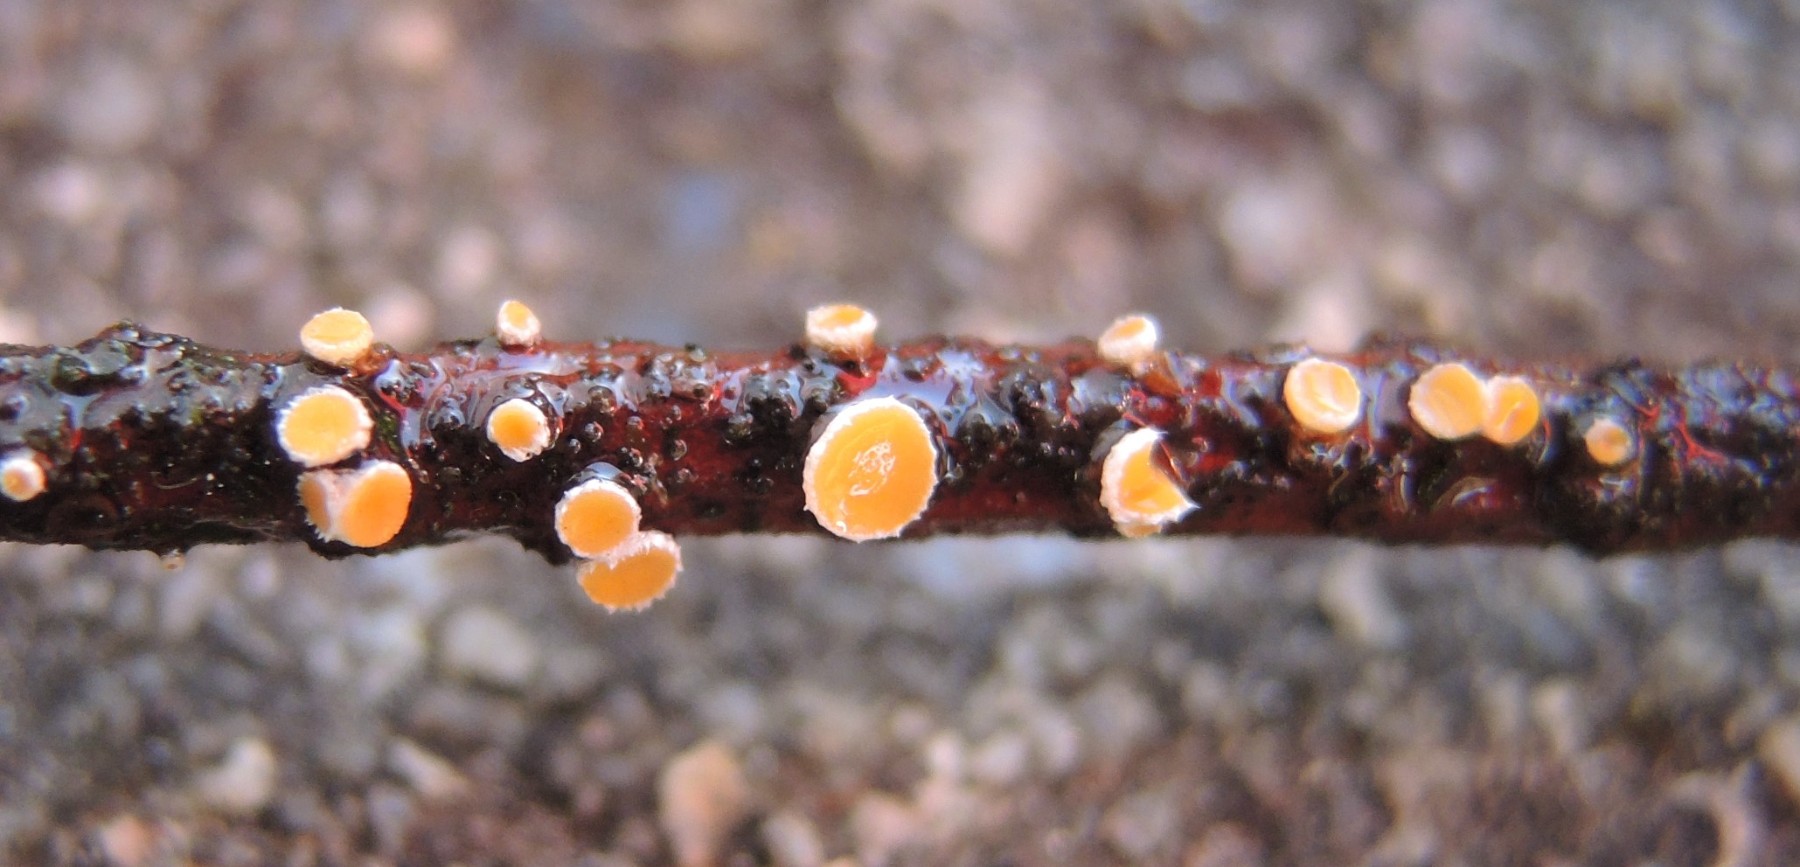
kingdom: Fungi
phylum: Ascomycota
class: Leotiomycetes
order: Helotiales
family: Lachnaceae
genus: Perrotia
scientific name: Perrotia gallica
